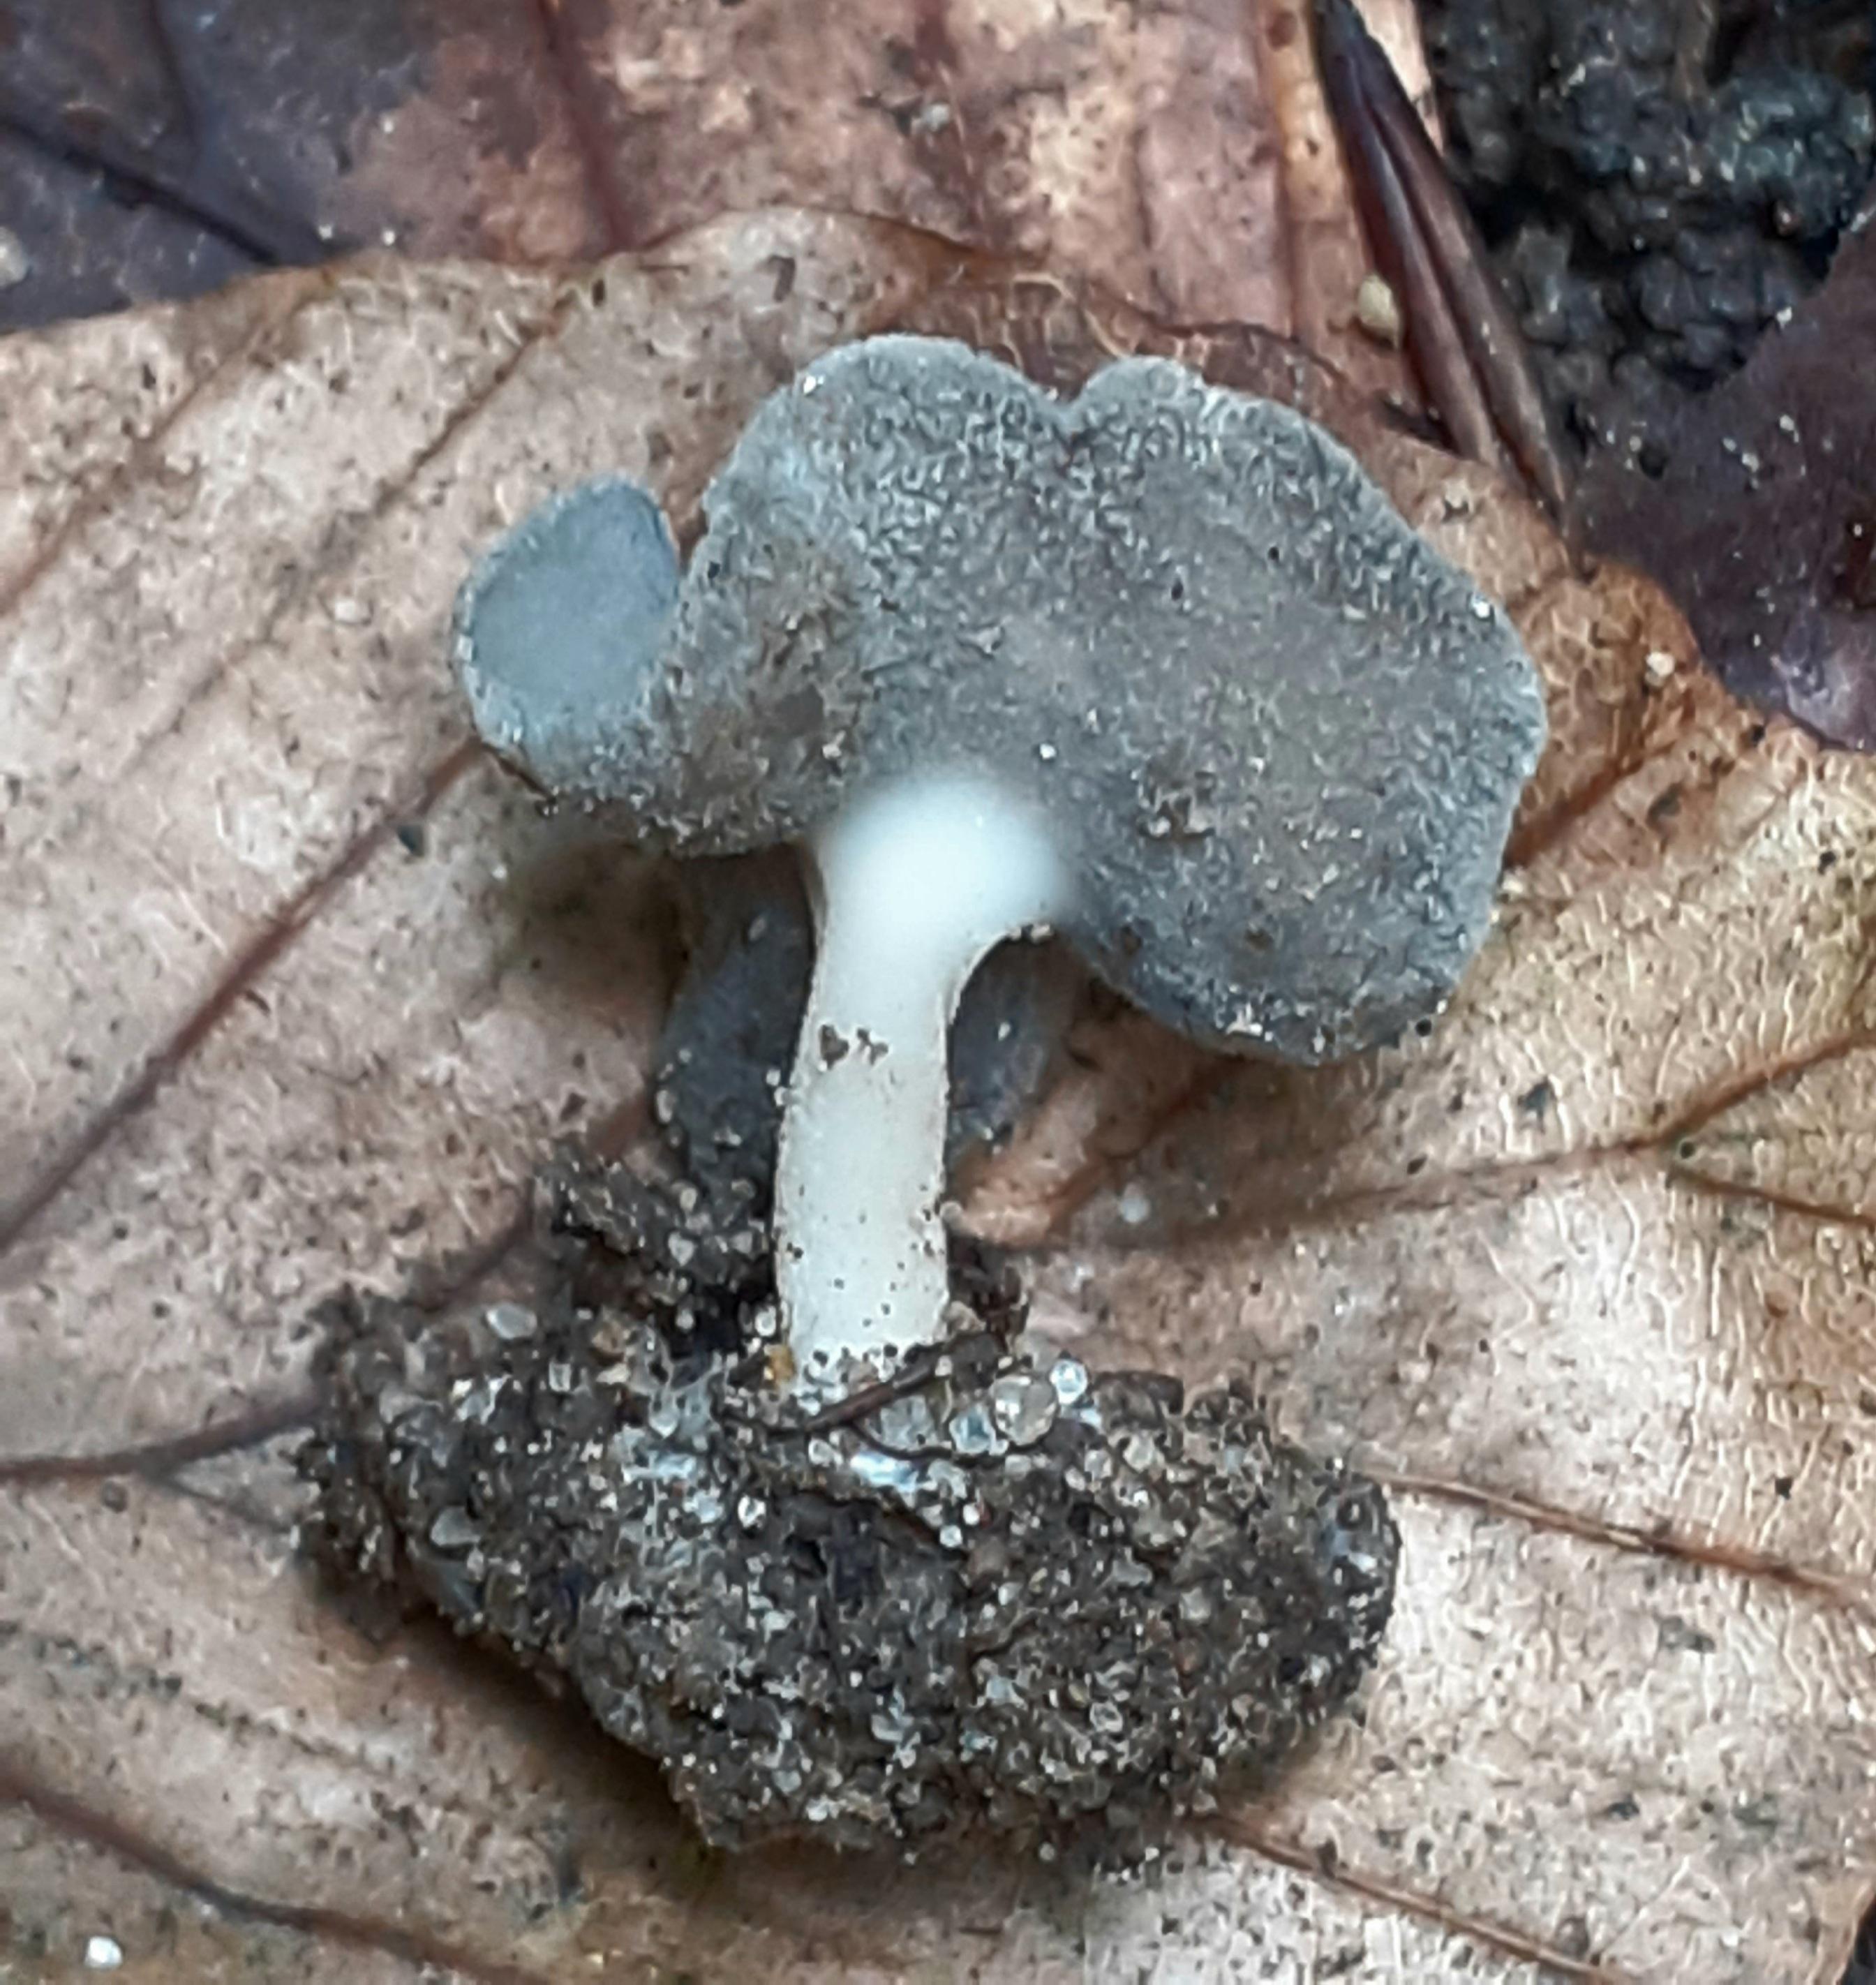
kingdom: Fungi
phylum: Ascomycota
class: Pezizomycetes
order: Pezizales
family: Helvellaceae
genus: Helvella
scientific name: Helvella
